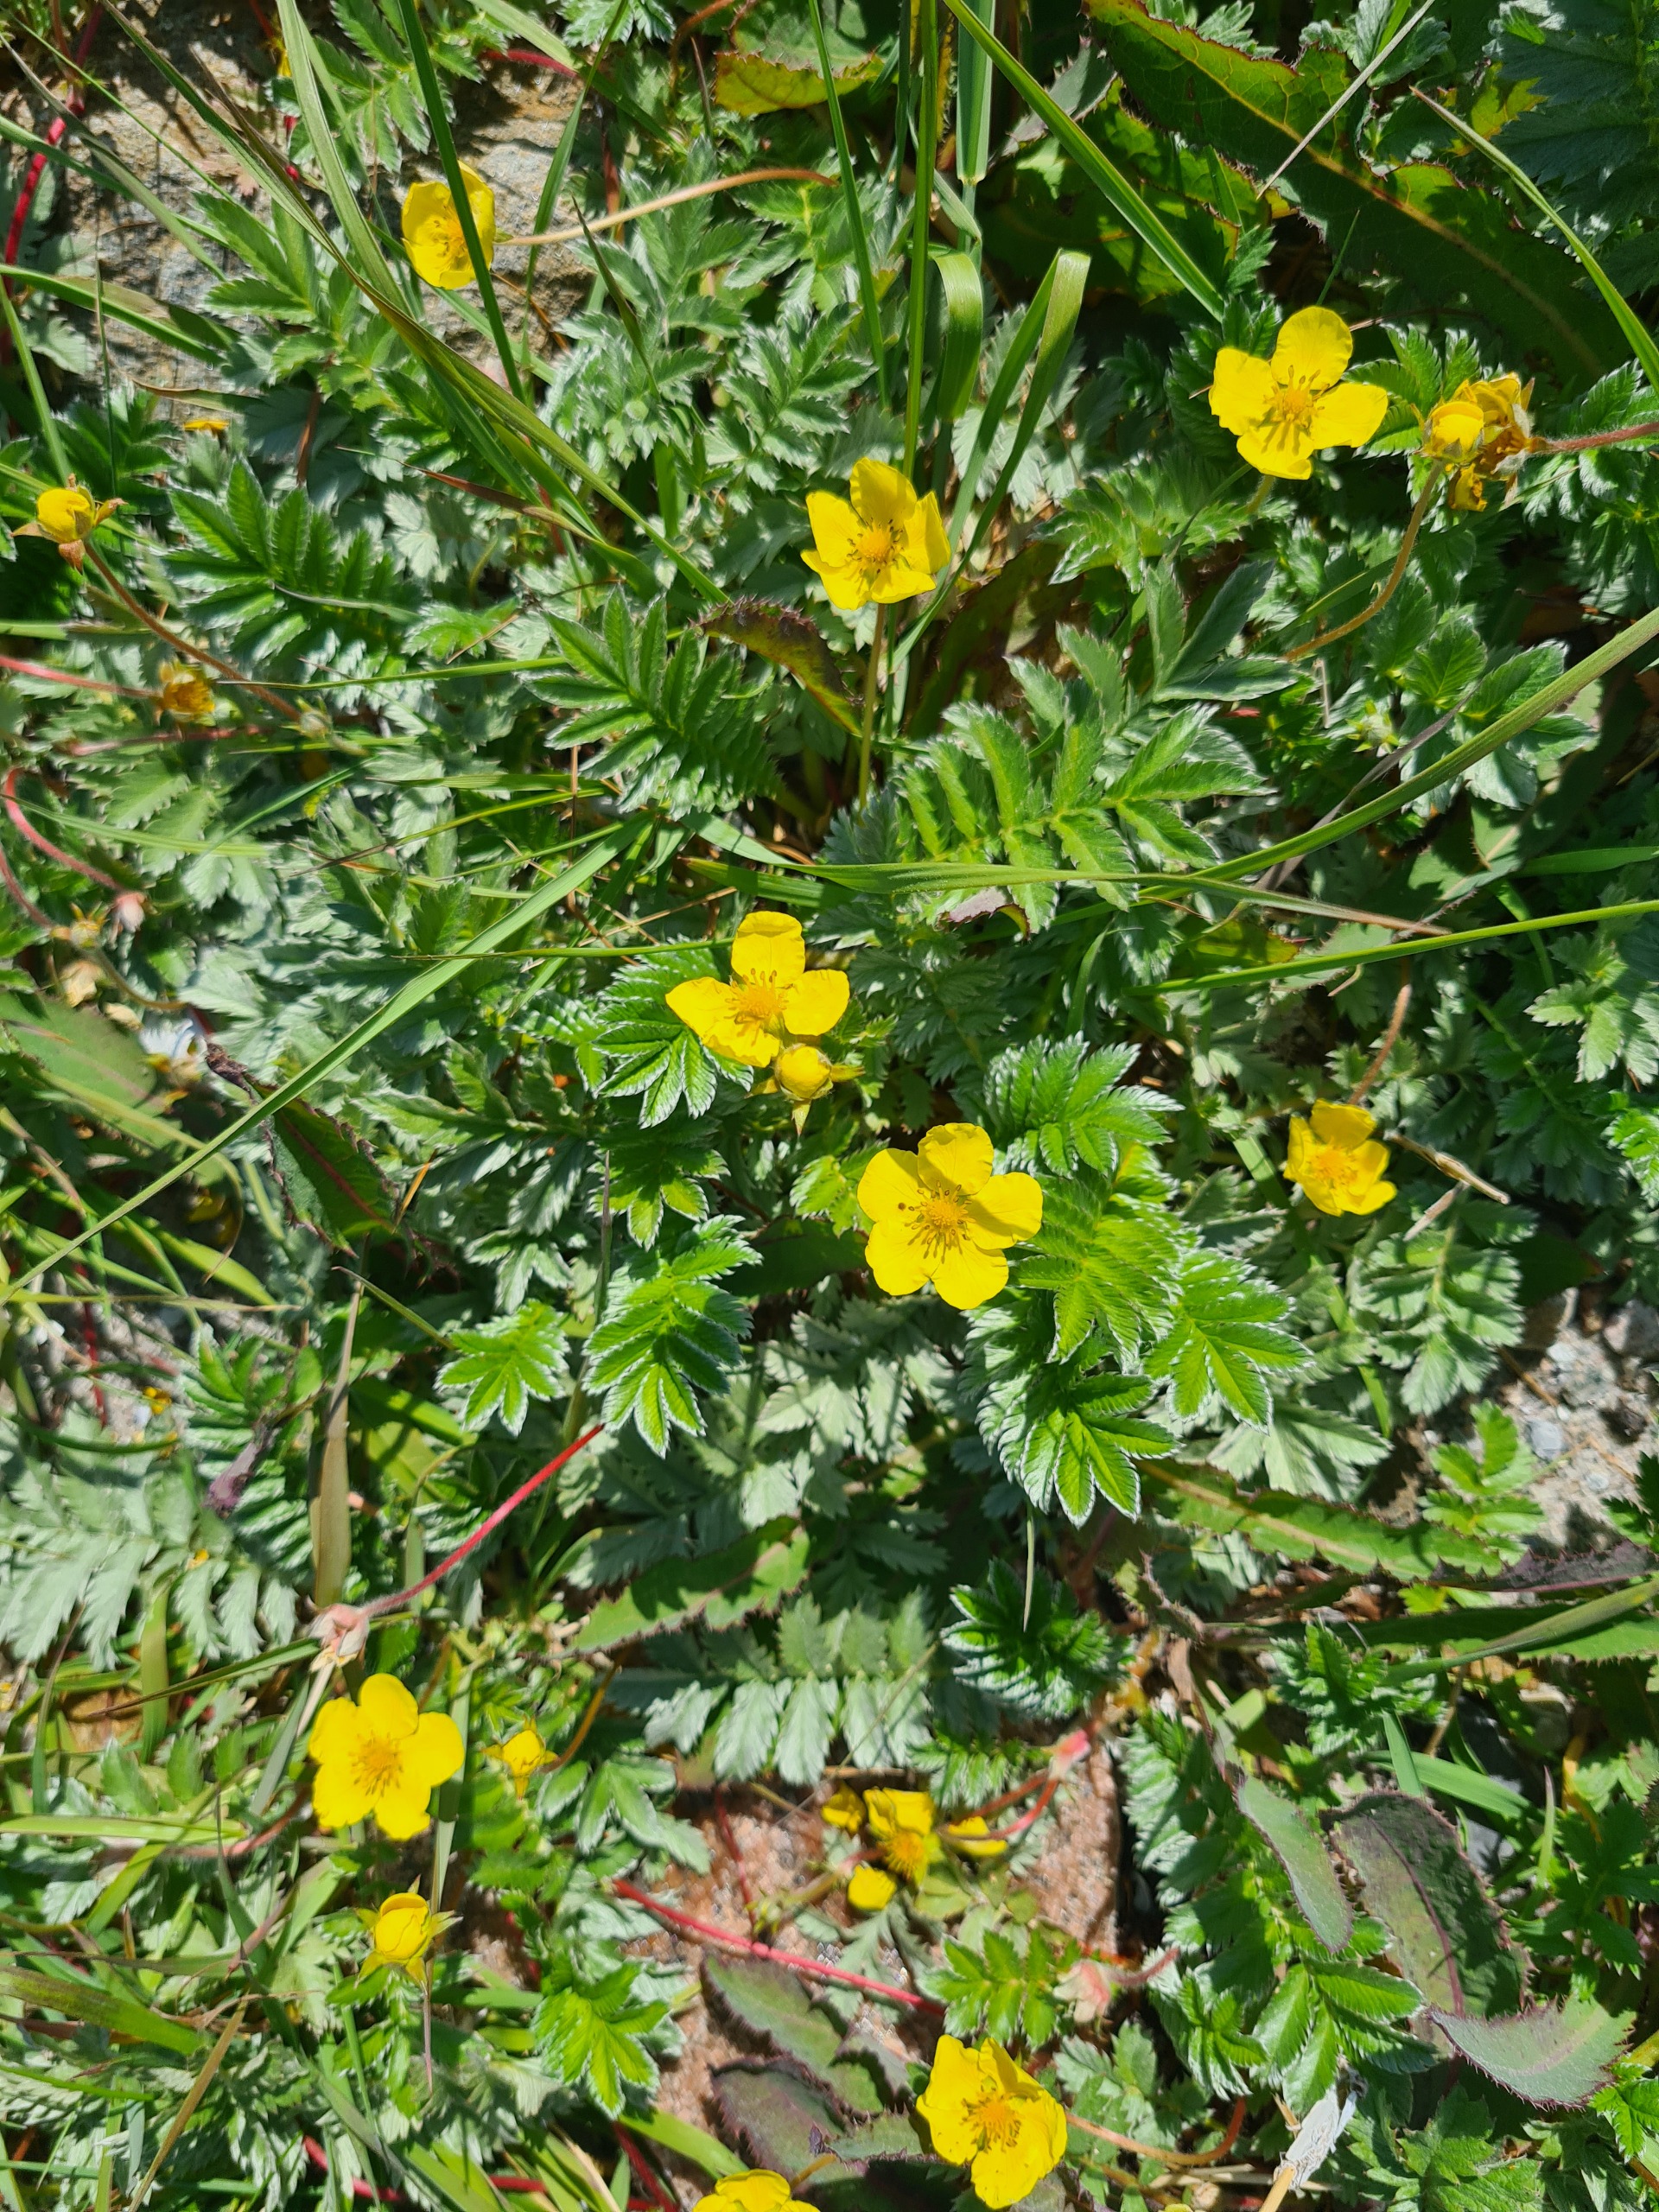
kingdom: Plantae
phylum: Tracheophyta
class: Magnoliopsida
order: Rosales
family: Rosaceae
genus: Argentina
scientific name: Argentina anserina
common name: Gåsepotentil
